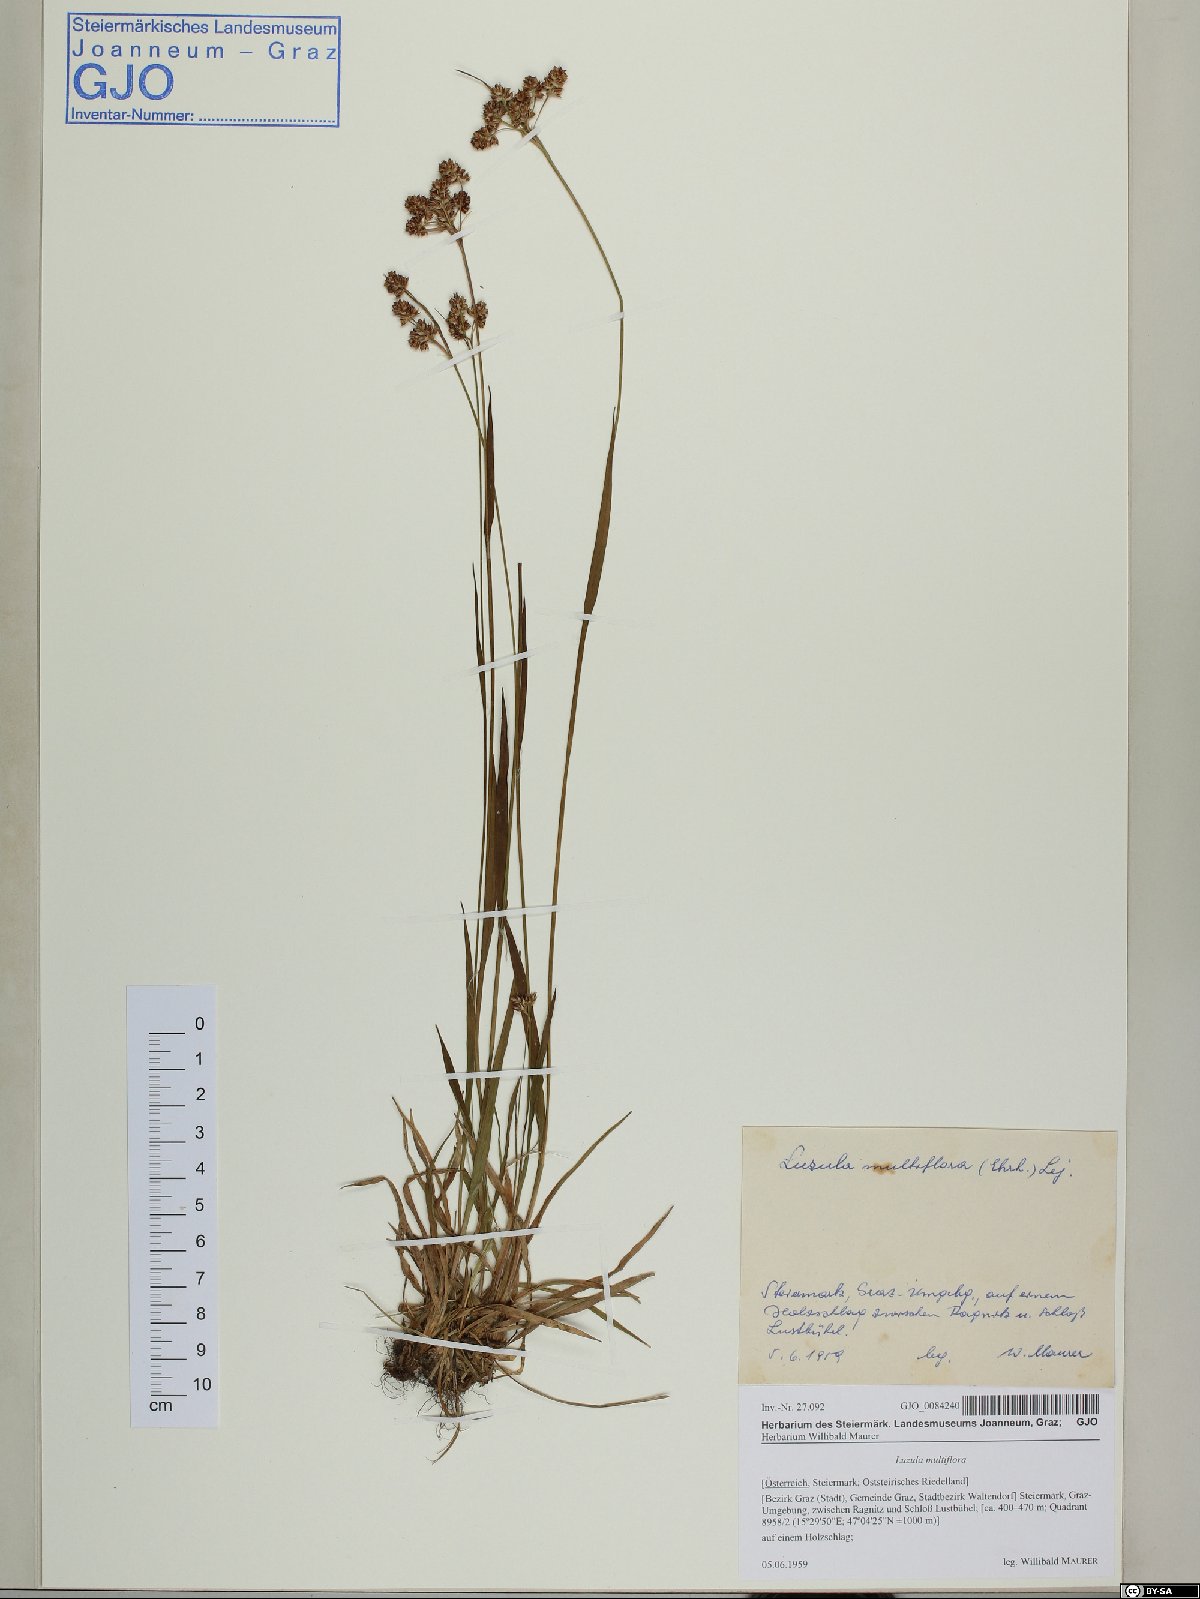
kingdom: Plantae
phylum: Tracheophyta
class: Liliopsida
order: Poales
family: Juncaceae
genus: Luzula
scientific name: Luzula multiflora
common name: Heath wood-rush
